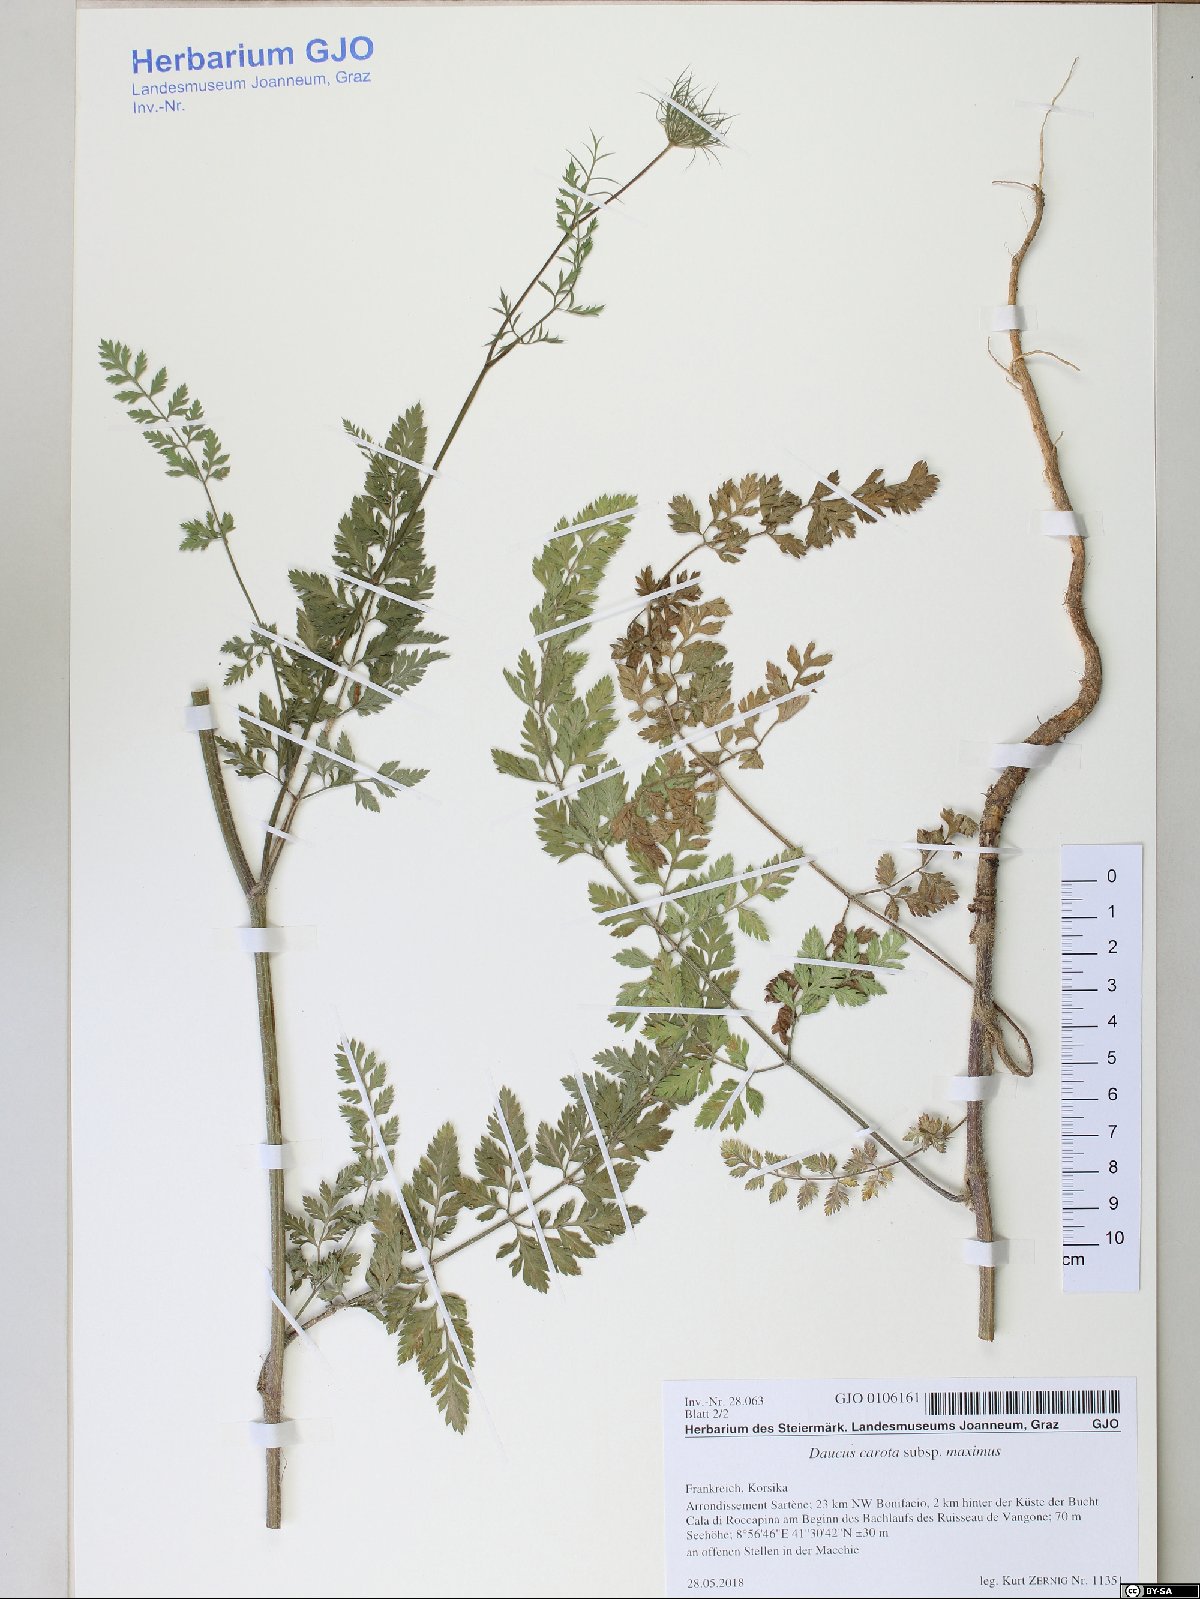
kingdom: Plantae
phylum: Tracheophyta
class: Magnoliopsida
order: Apiales
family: Apiaceae
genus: Daucus
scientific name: Daucus carota
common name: Wild carrot
